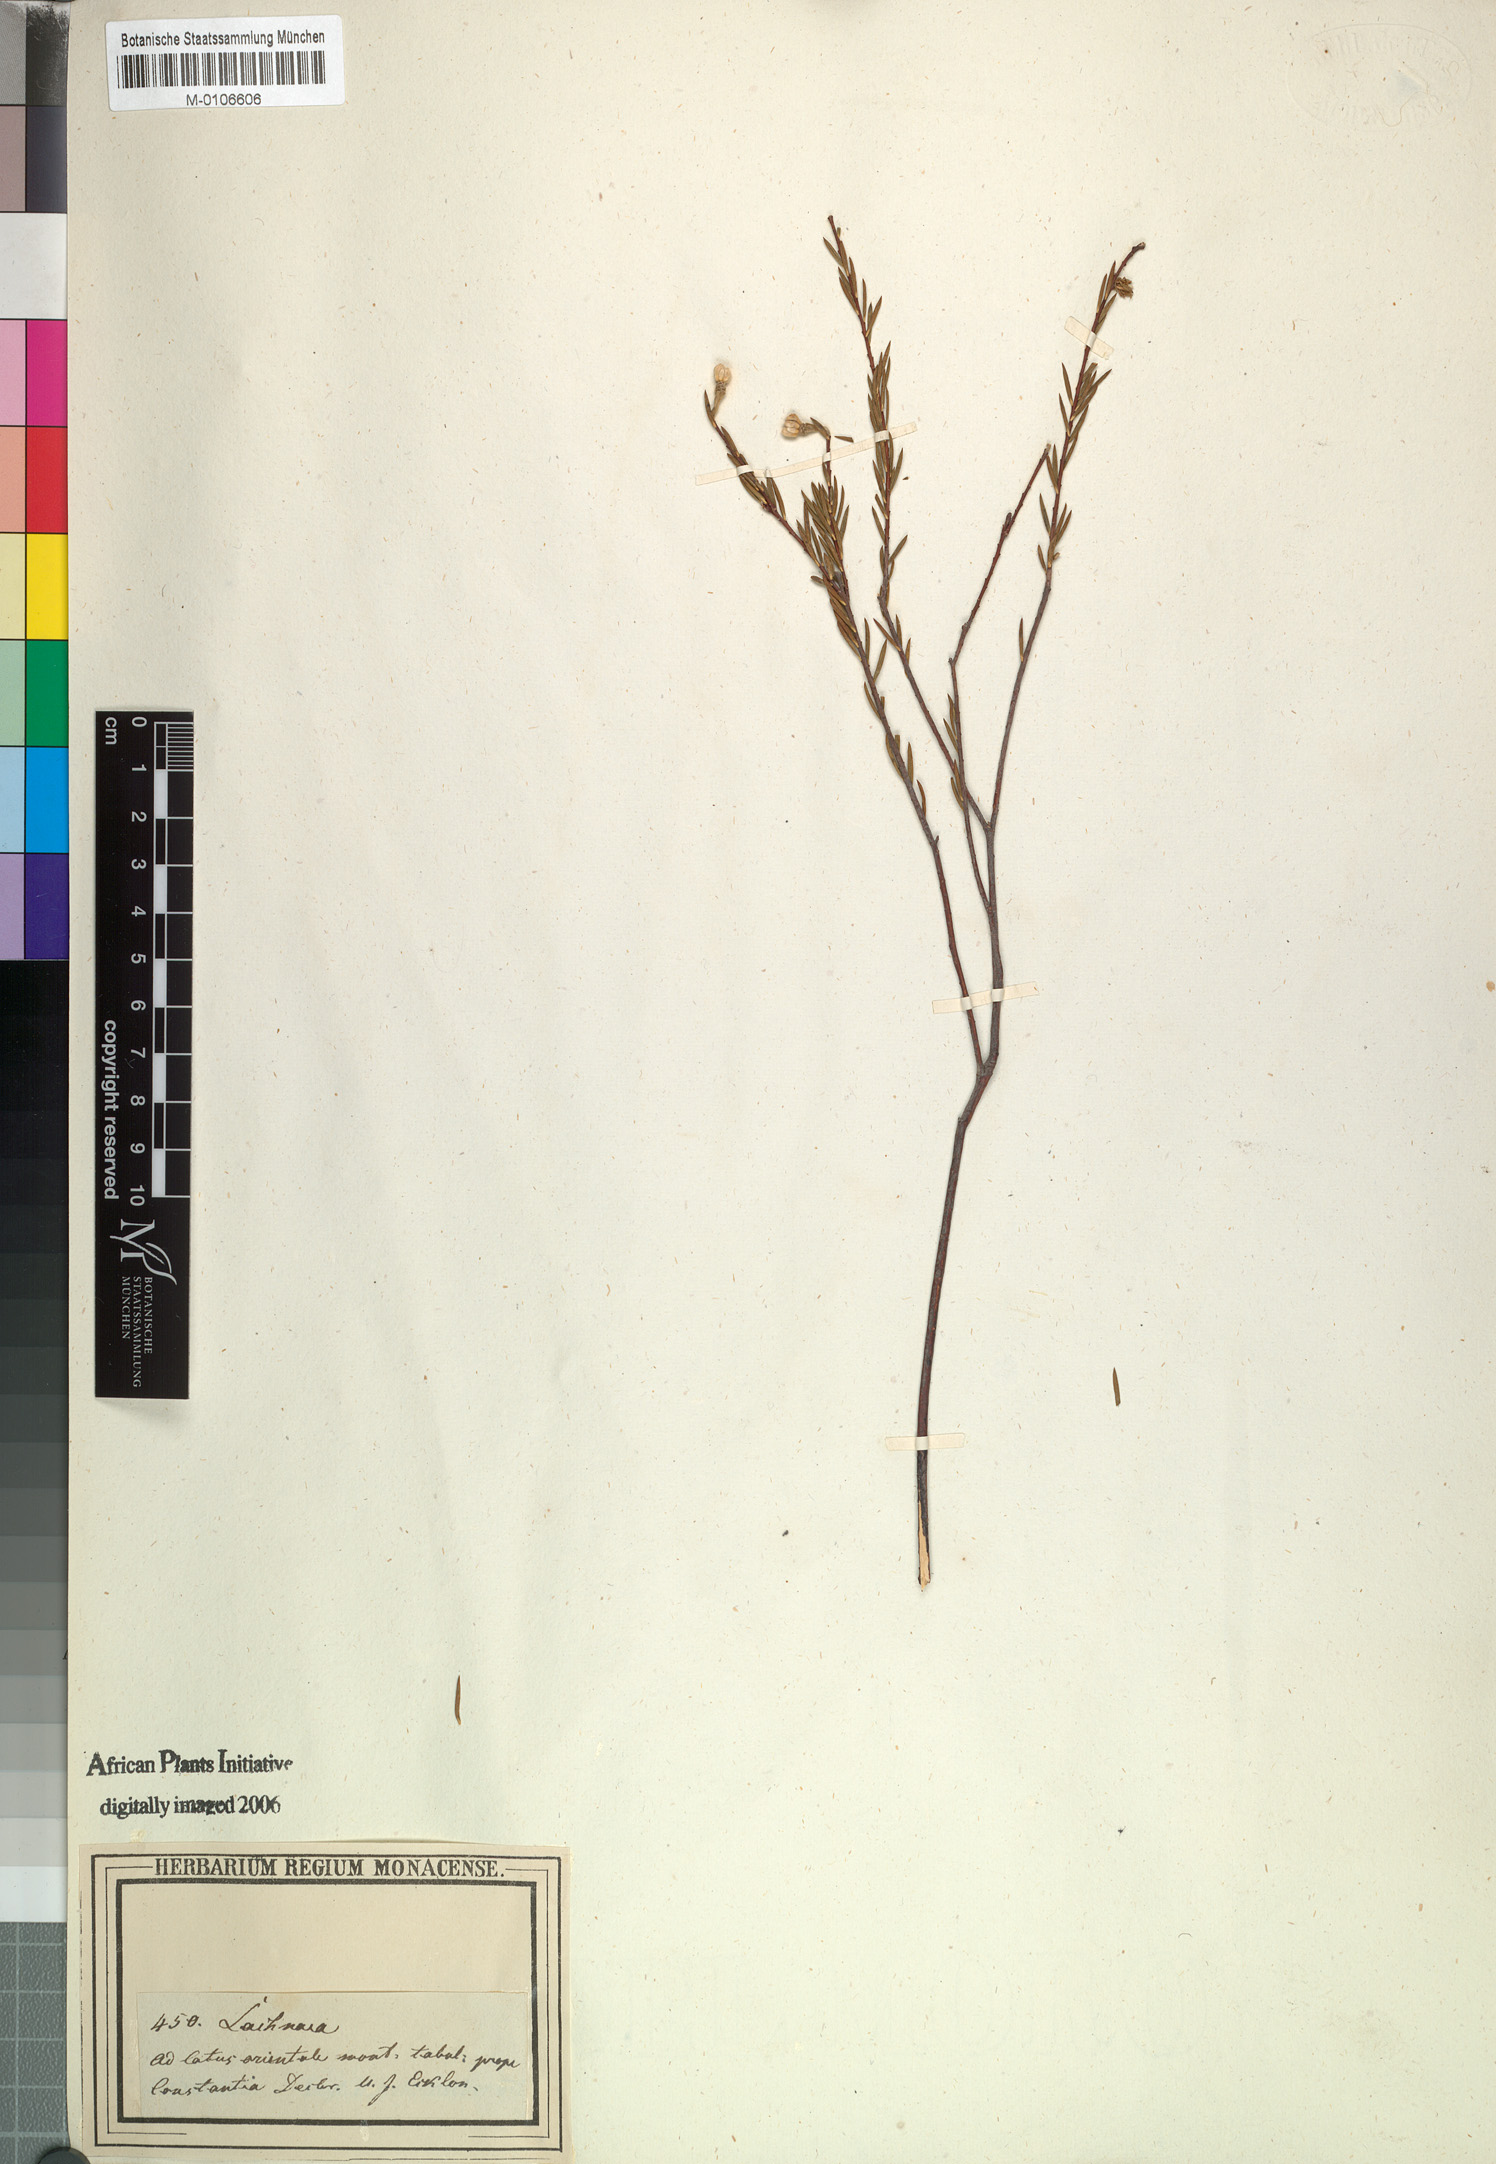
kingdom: Plantae
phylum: Tracheophyta
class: Magnoliopsida
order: Malvales
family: Thymelaeaceae
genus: Lachnaea
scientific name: Lachnaea capitata
